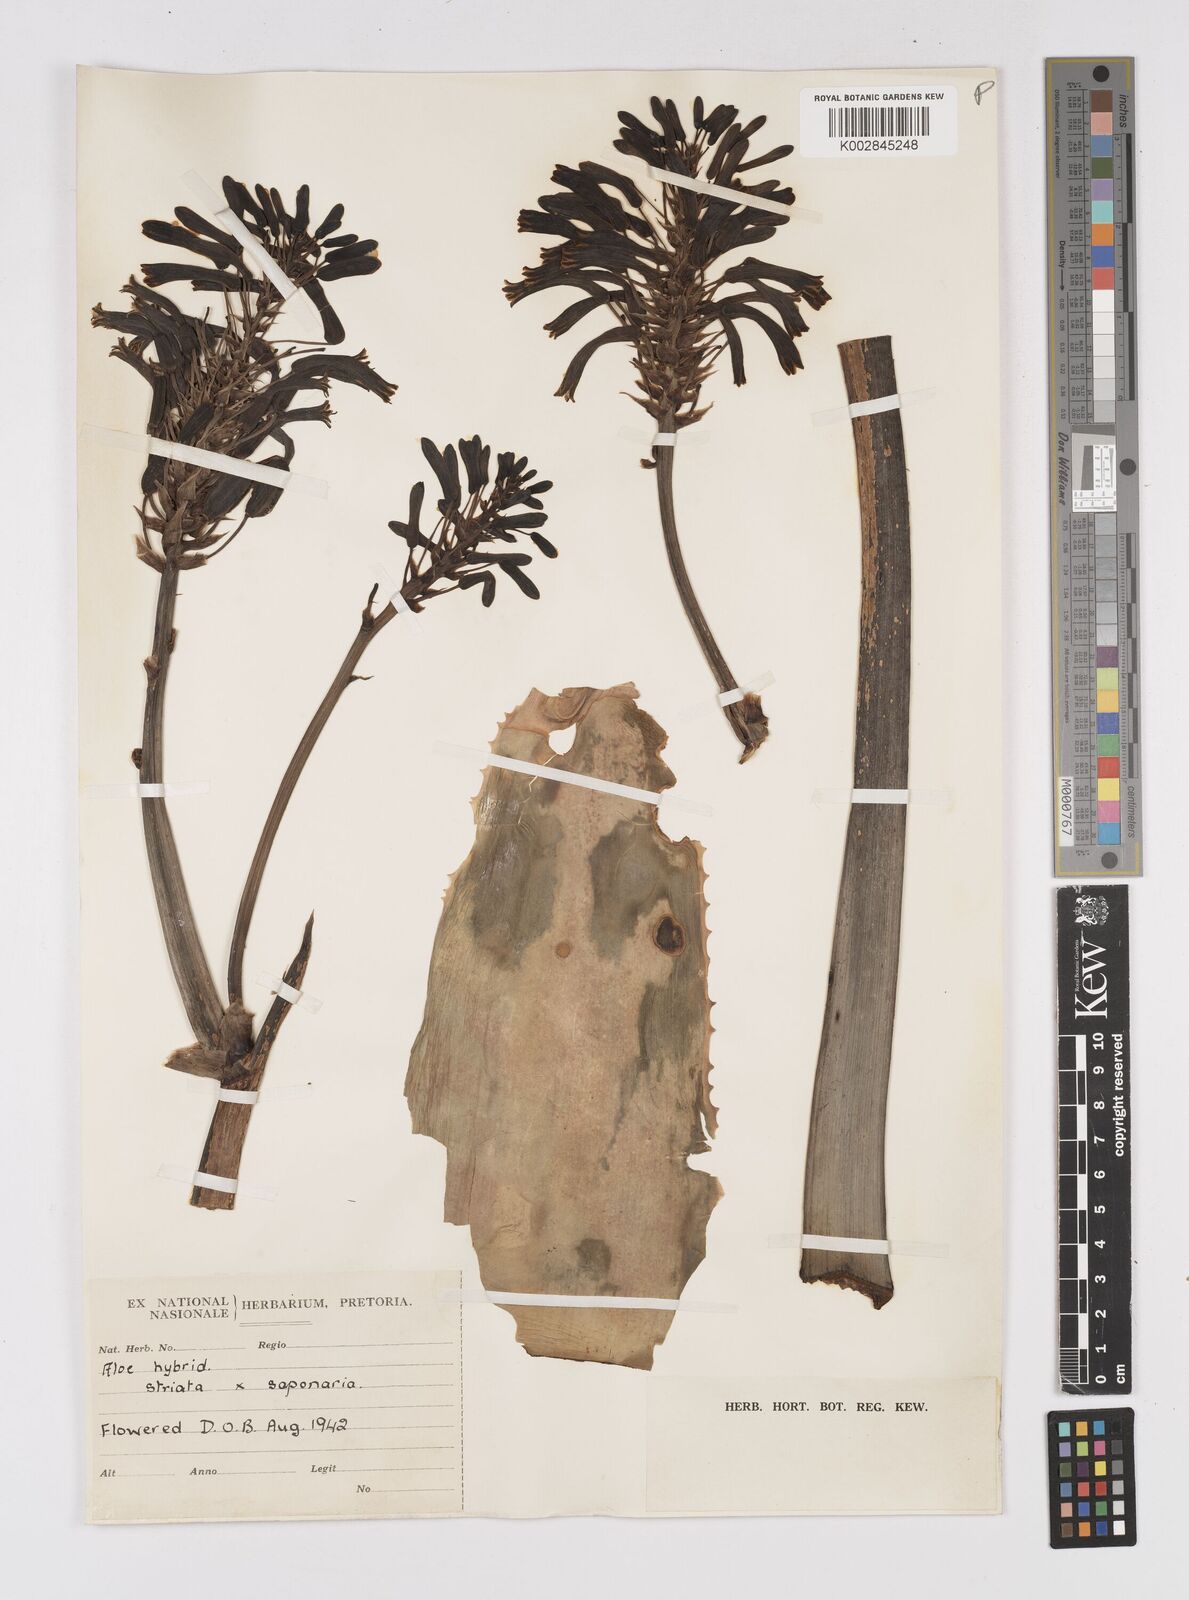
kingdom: Plantae
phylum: Tracheophyta
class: Liliopsida
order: Asparagales
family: Asphodelaceae
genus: Aloe
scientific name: Aloe striata
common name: Coral aloe
